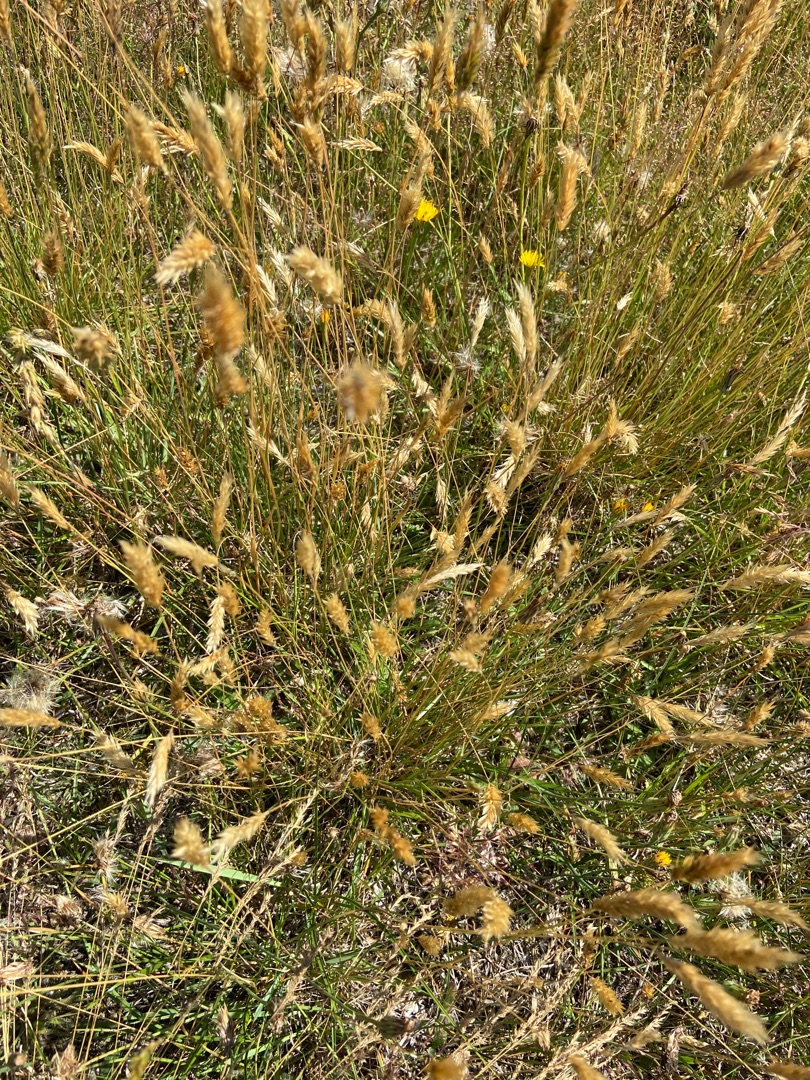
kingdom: Plantae
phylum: Tracheophyta
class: Liliopsida
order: Poales
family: Poaceae
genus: Anthoxanthum
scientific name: Anthoxanthum odoratum
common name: Vellugtende gulaks
